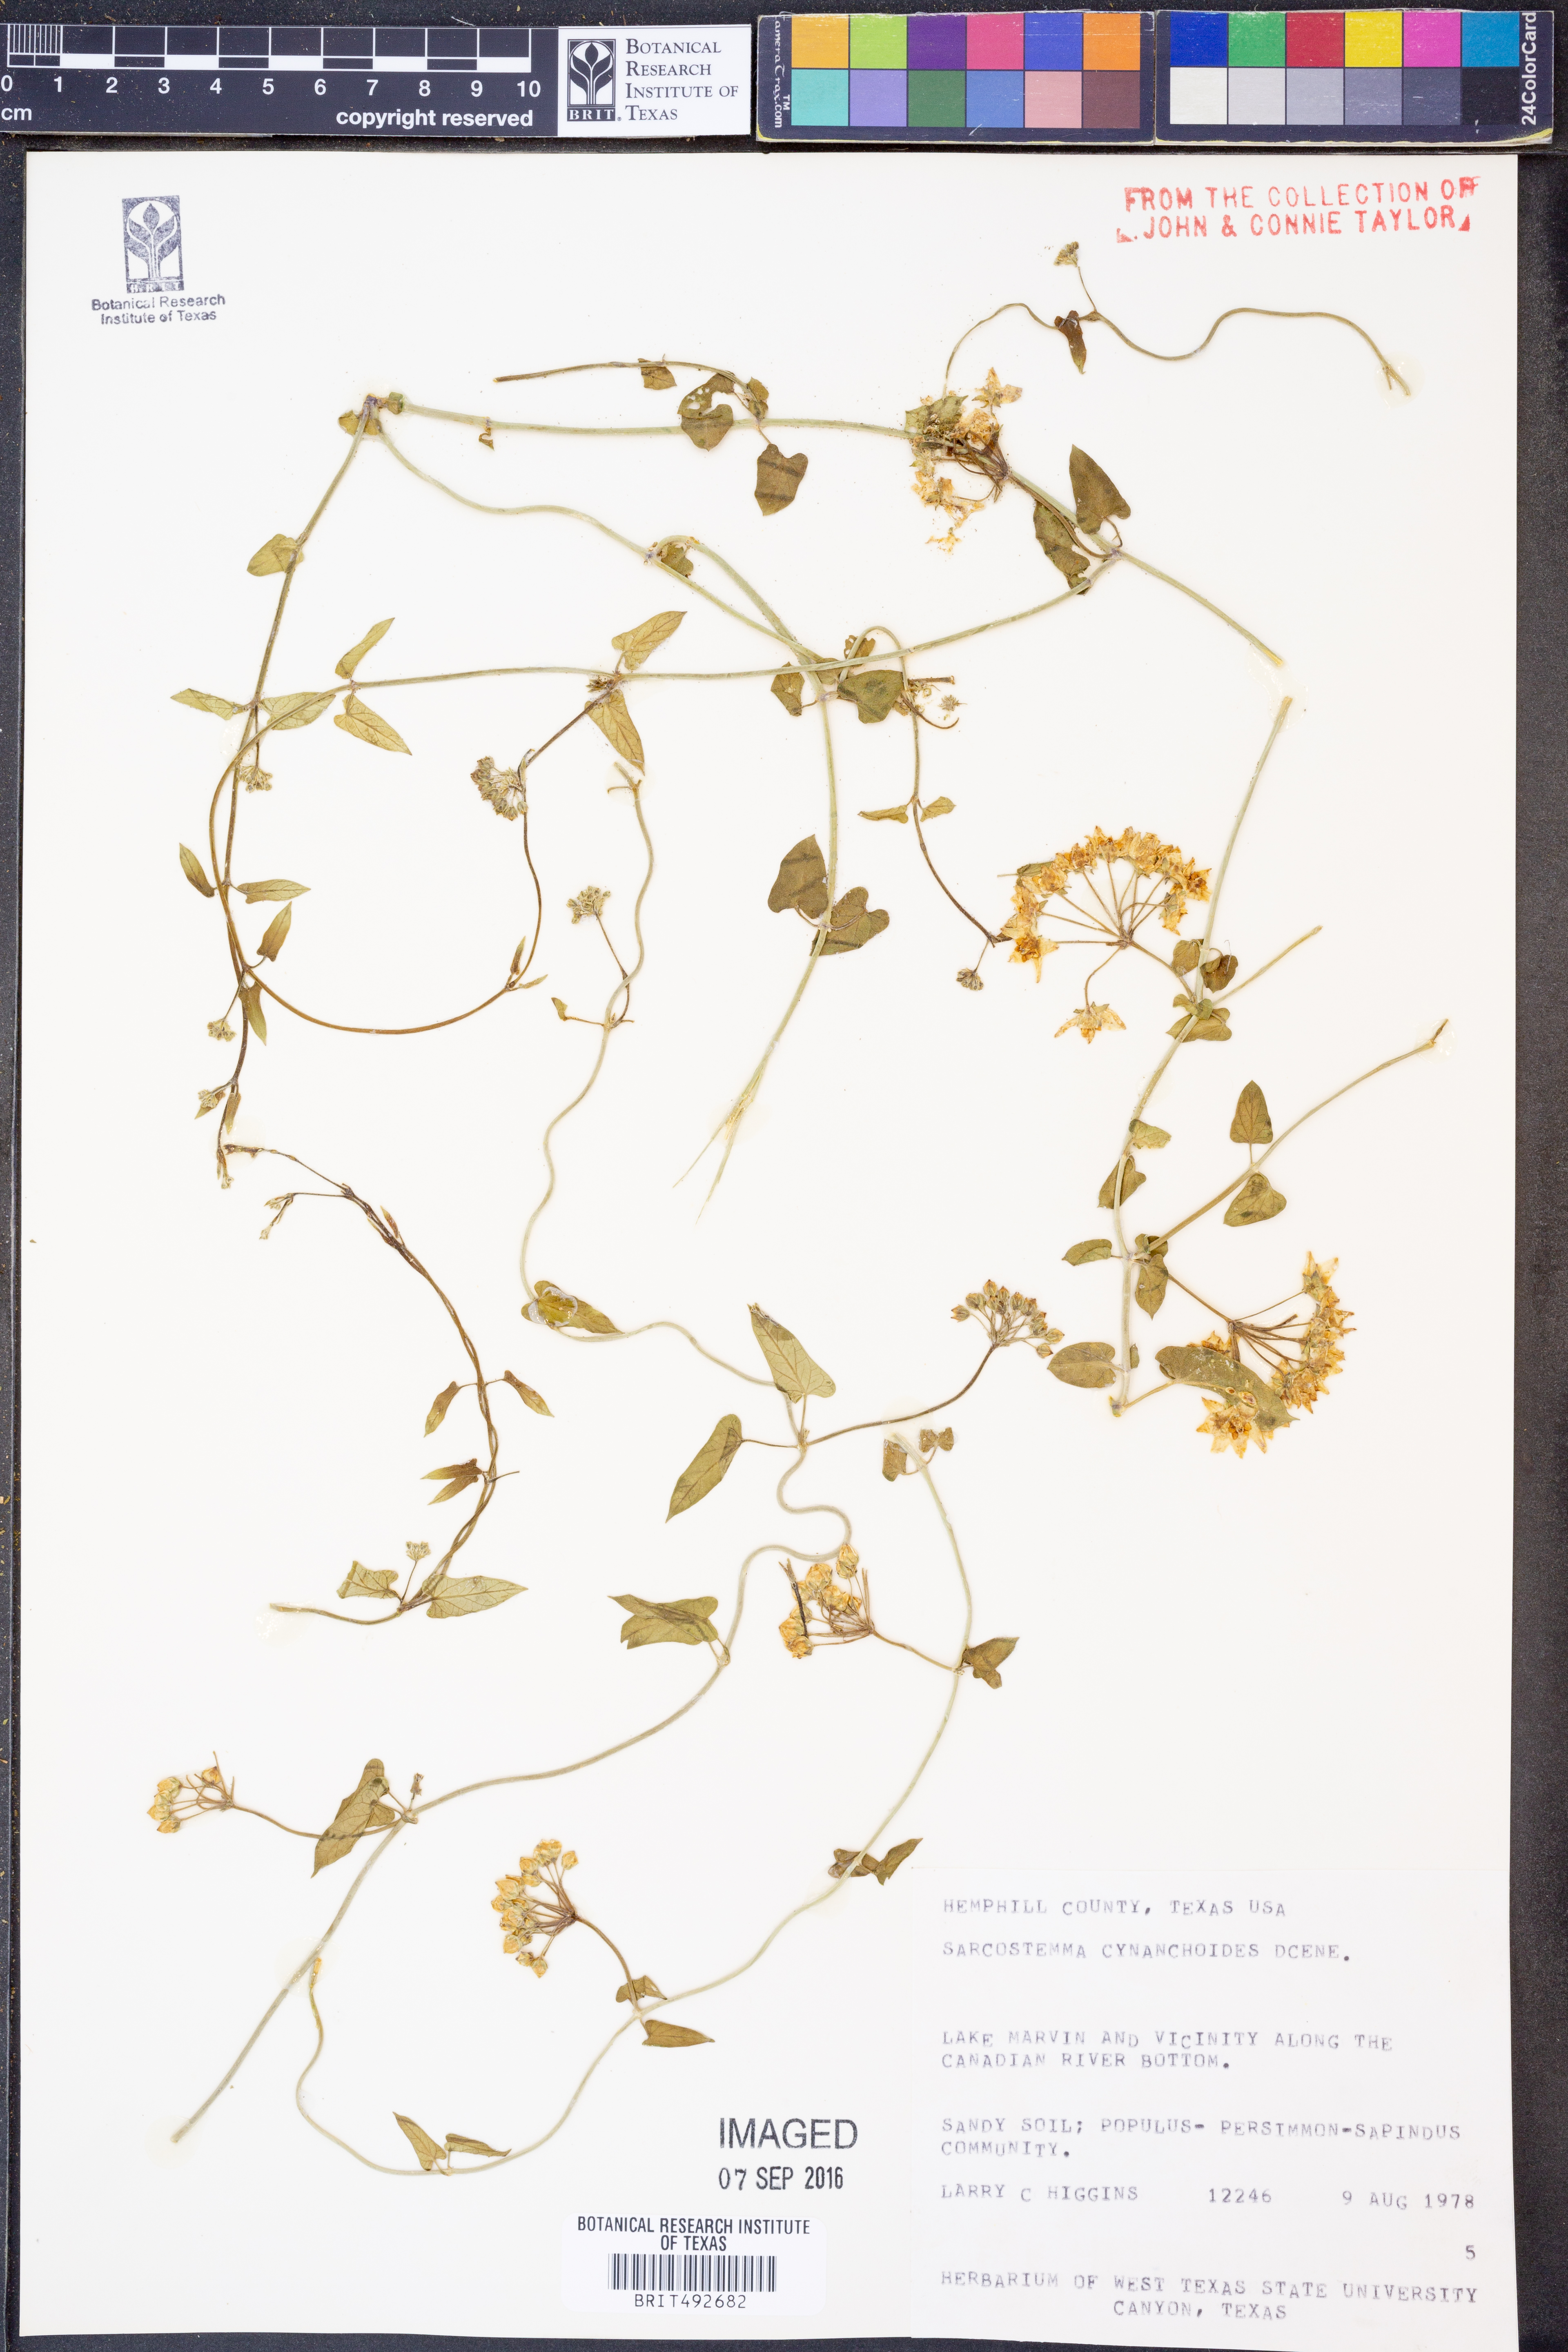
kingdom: Plantae
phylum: Tracheophyta
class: Magnoliopsida
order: Gentianales
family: Apocynaceae
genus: Funastrum
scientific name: Funastrum cynanchoides
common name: Climbing-milkweed
